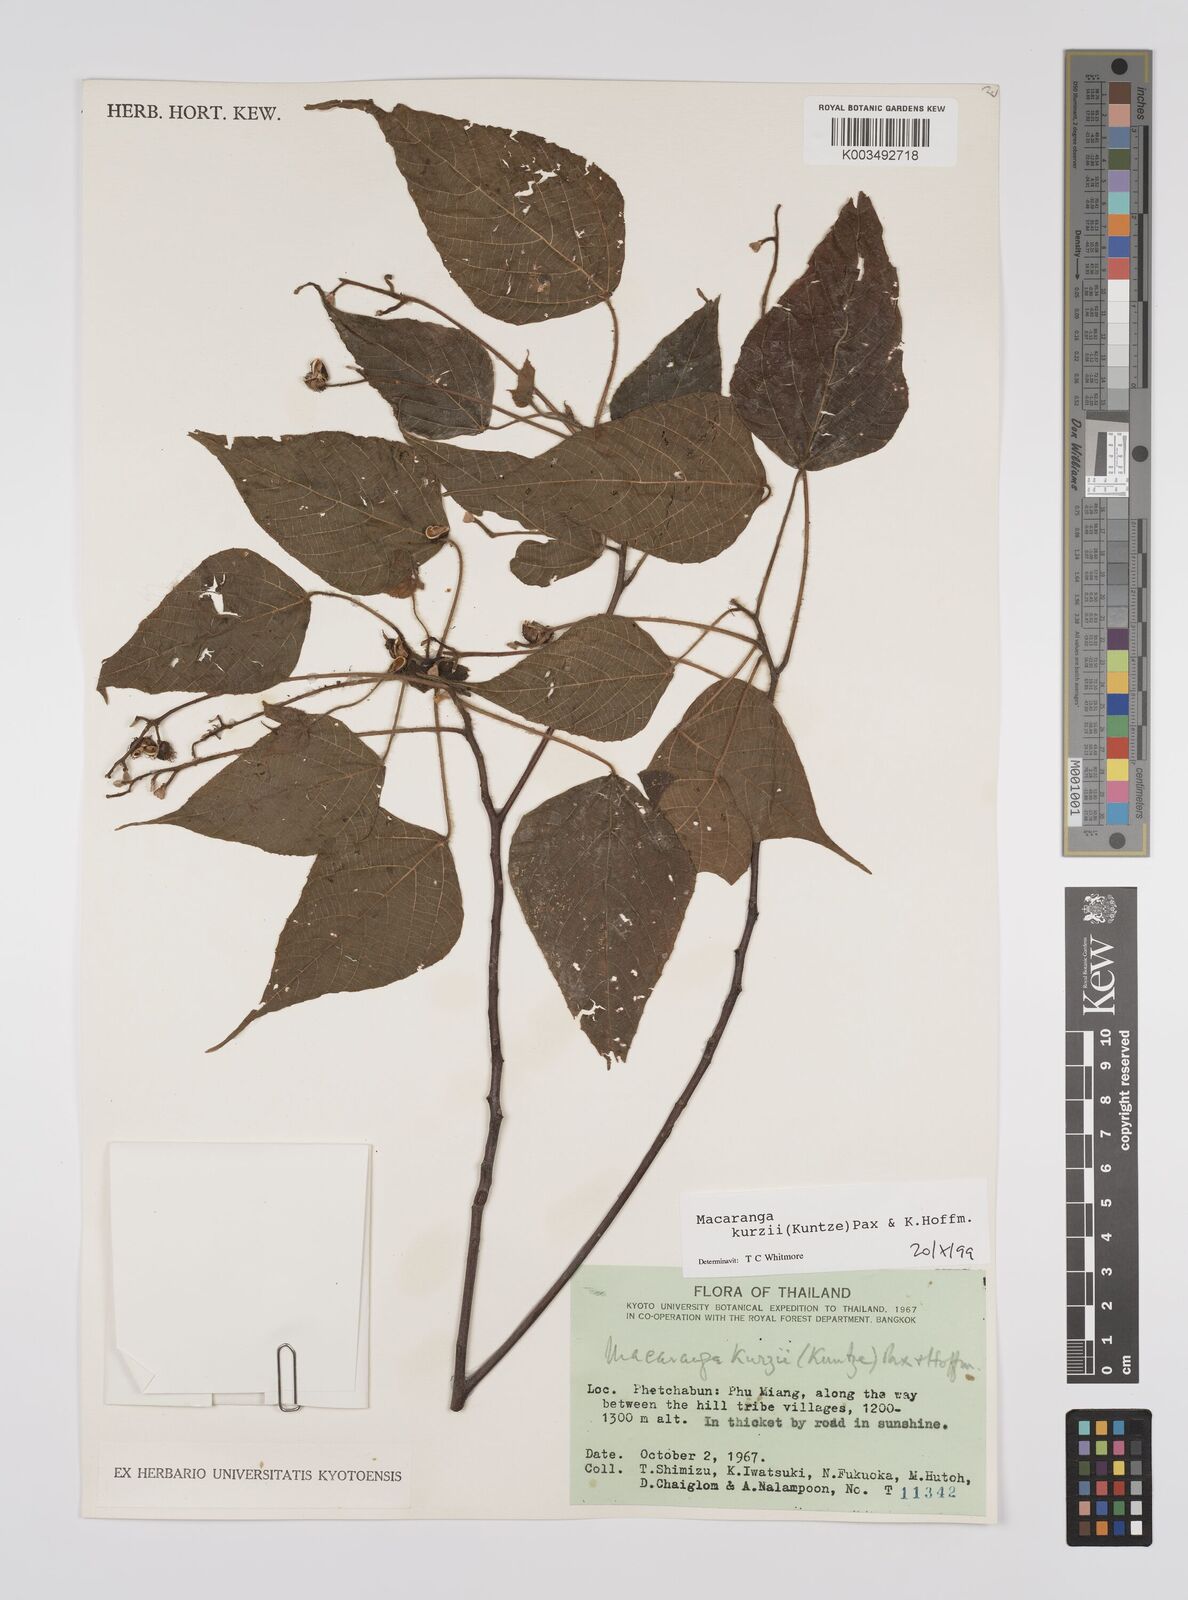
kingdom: Plantae
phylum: Tracheophyta
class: Magnoliopsida
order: Malpighiales
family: Euphorbiaceae
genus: Macaranga
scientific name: Macaranga kurzii
